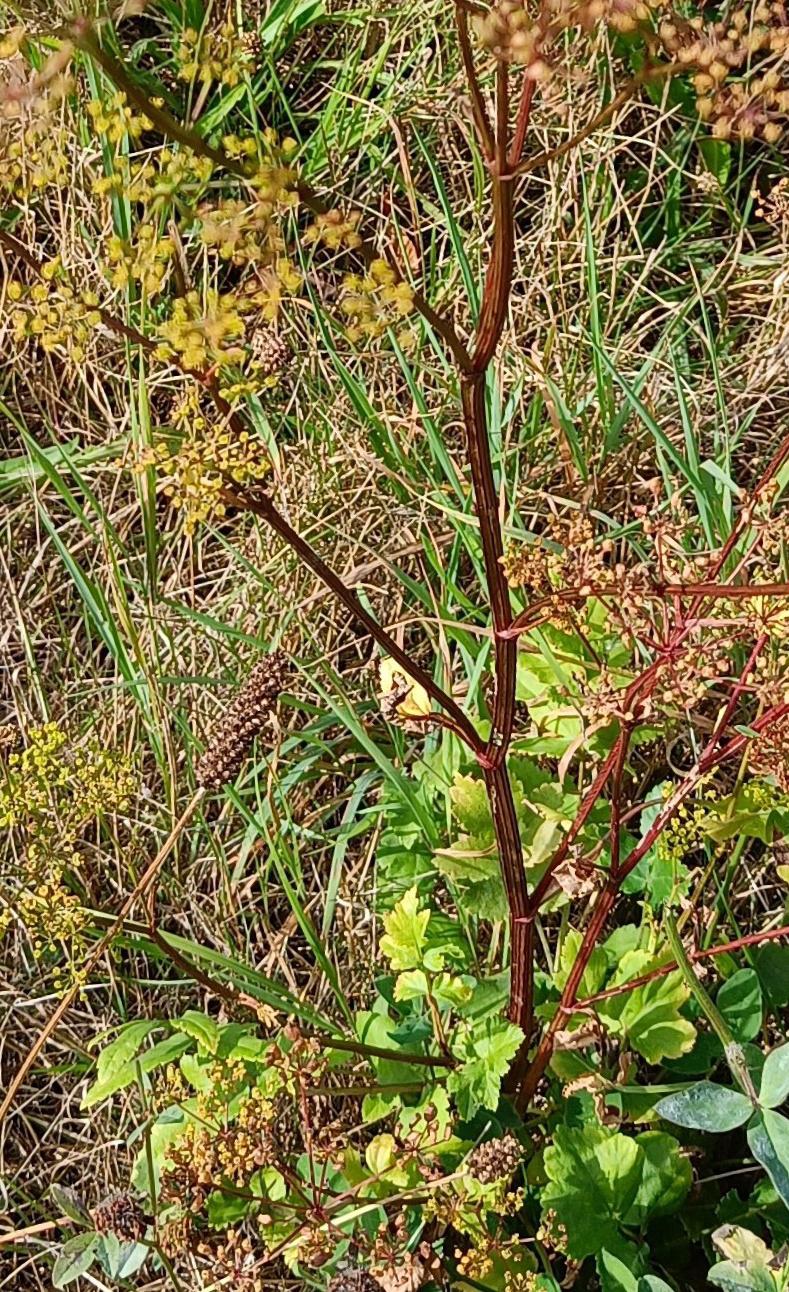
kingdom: Plantae
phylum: Tracheophyta
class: Magnoliopsida
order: Apiales
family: Apiaceae
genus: Pastinaca
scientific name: Pastinaca sativa
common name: Pastinak
